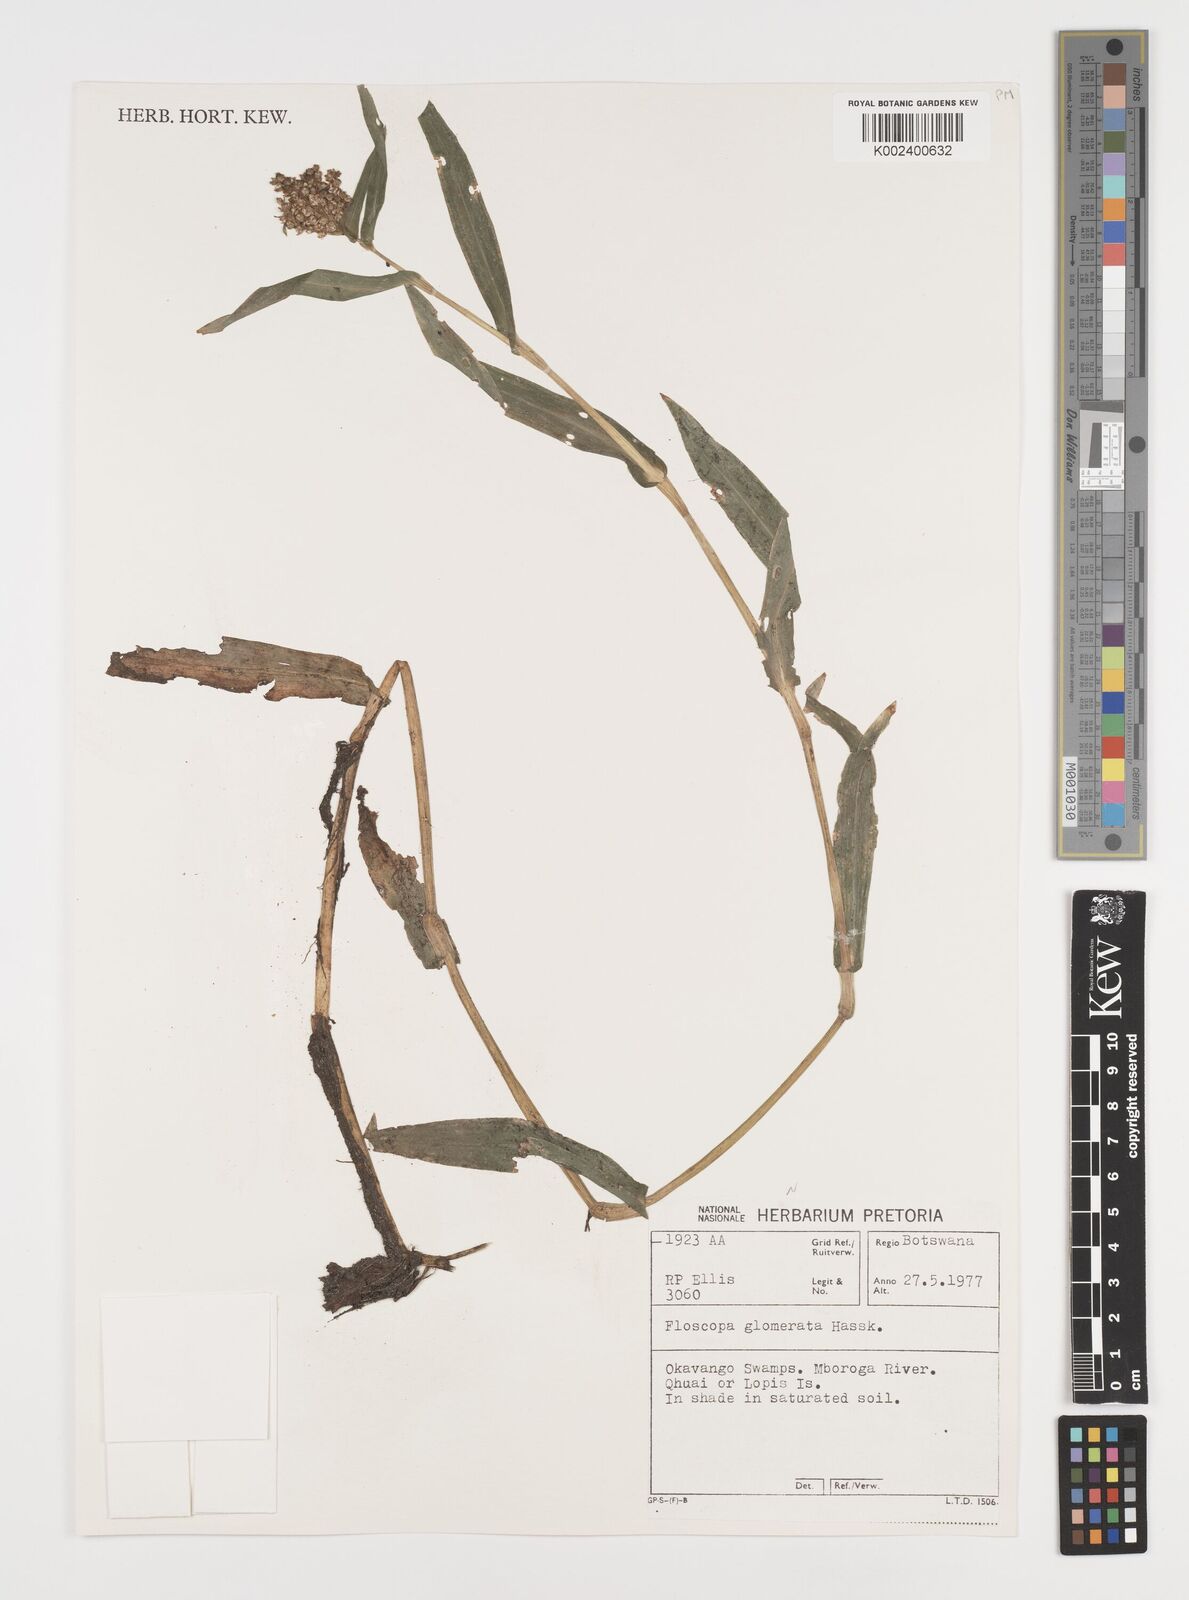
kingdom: Plantae
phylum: Tracheophyta
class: Liliopsida
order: Commelinales
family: Commelinaceae
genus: Floscopa
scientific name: Floscopa glomerata
